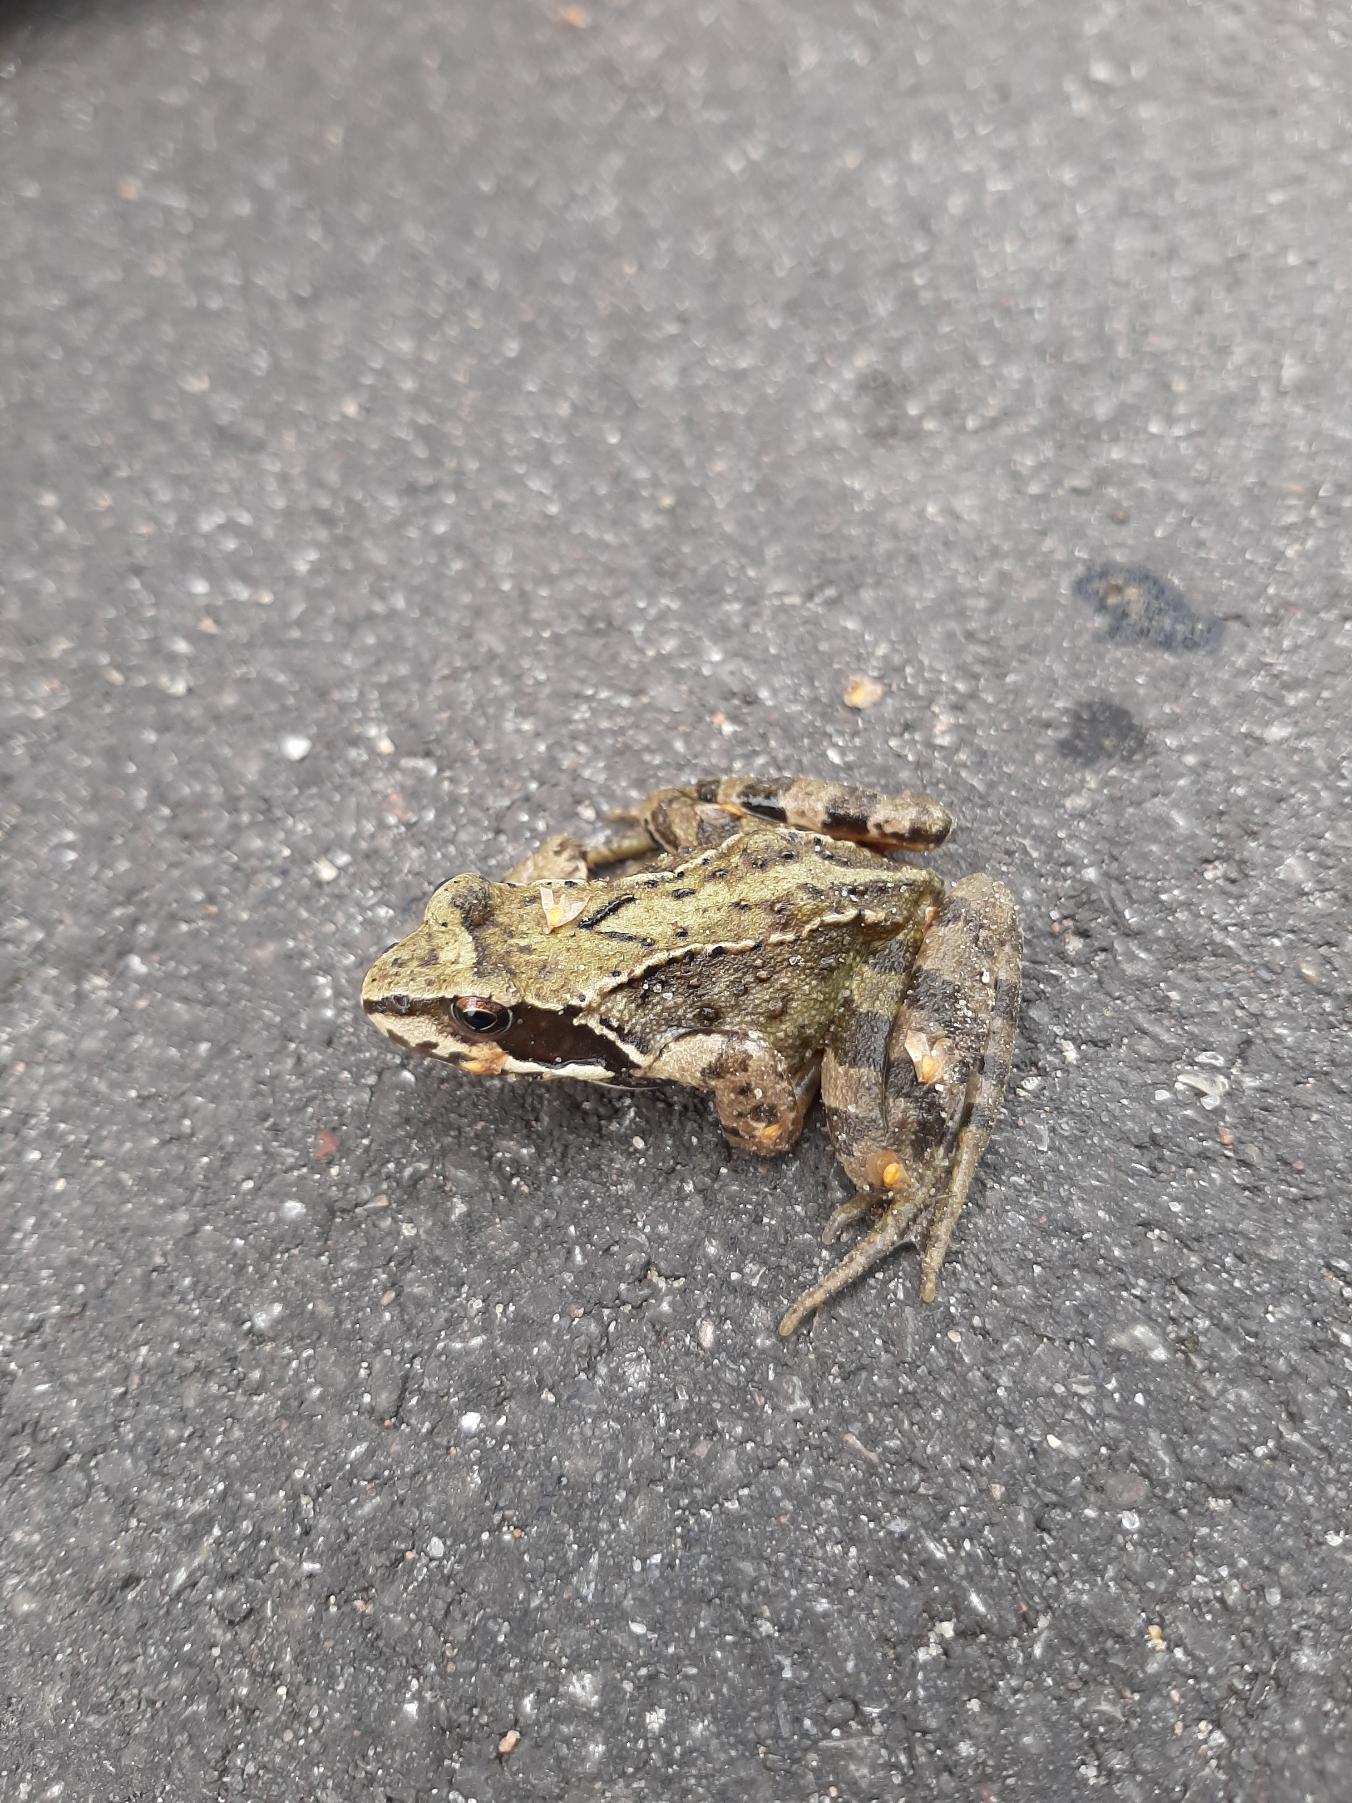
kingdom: Animalia
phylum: Chordata
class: Amphibia
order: Anura
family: Ranidae
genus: Rana
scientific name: Rana temporaria
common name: Butsnudet frø
